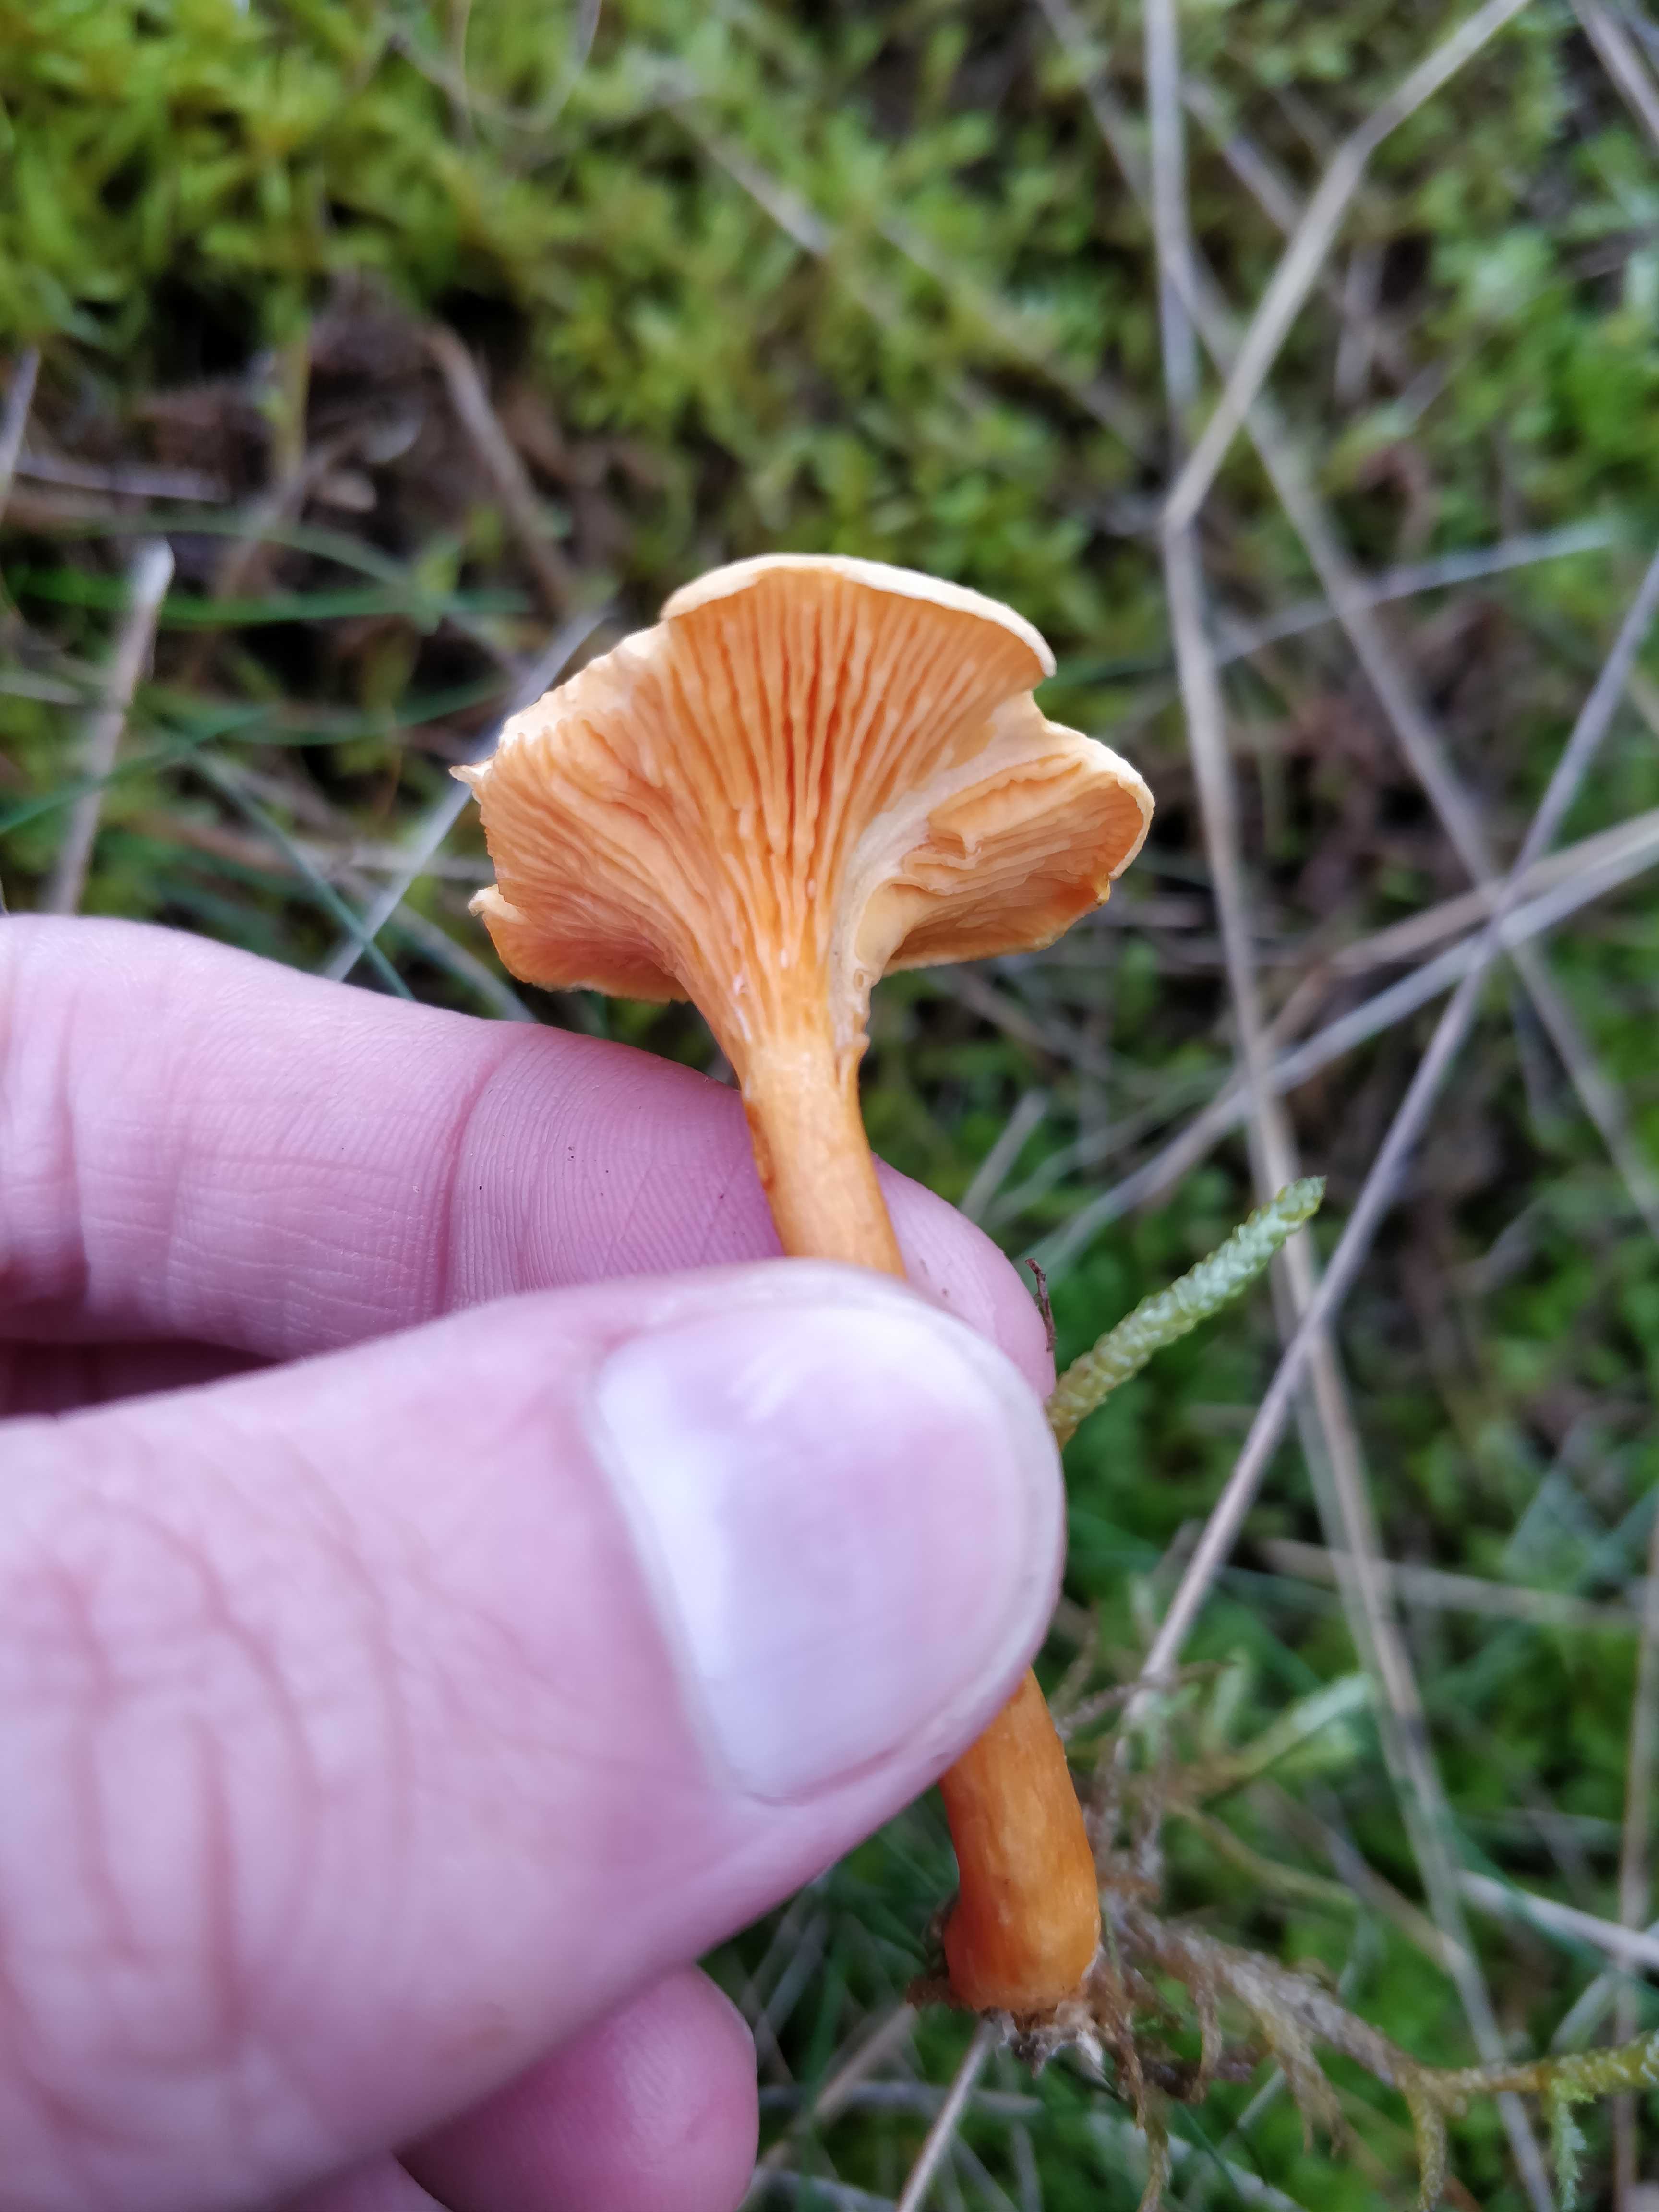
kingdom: Fungi
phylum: Basidiomycota
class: Agaricomycetes
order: Boletales
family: Hygrophoropsidaceae
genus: Hygrophoropsis
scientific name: Hygrophoropsis aurantiaca
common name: almindelig orangekantarel
